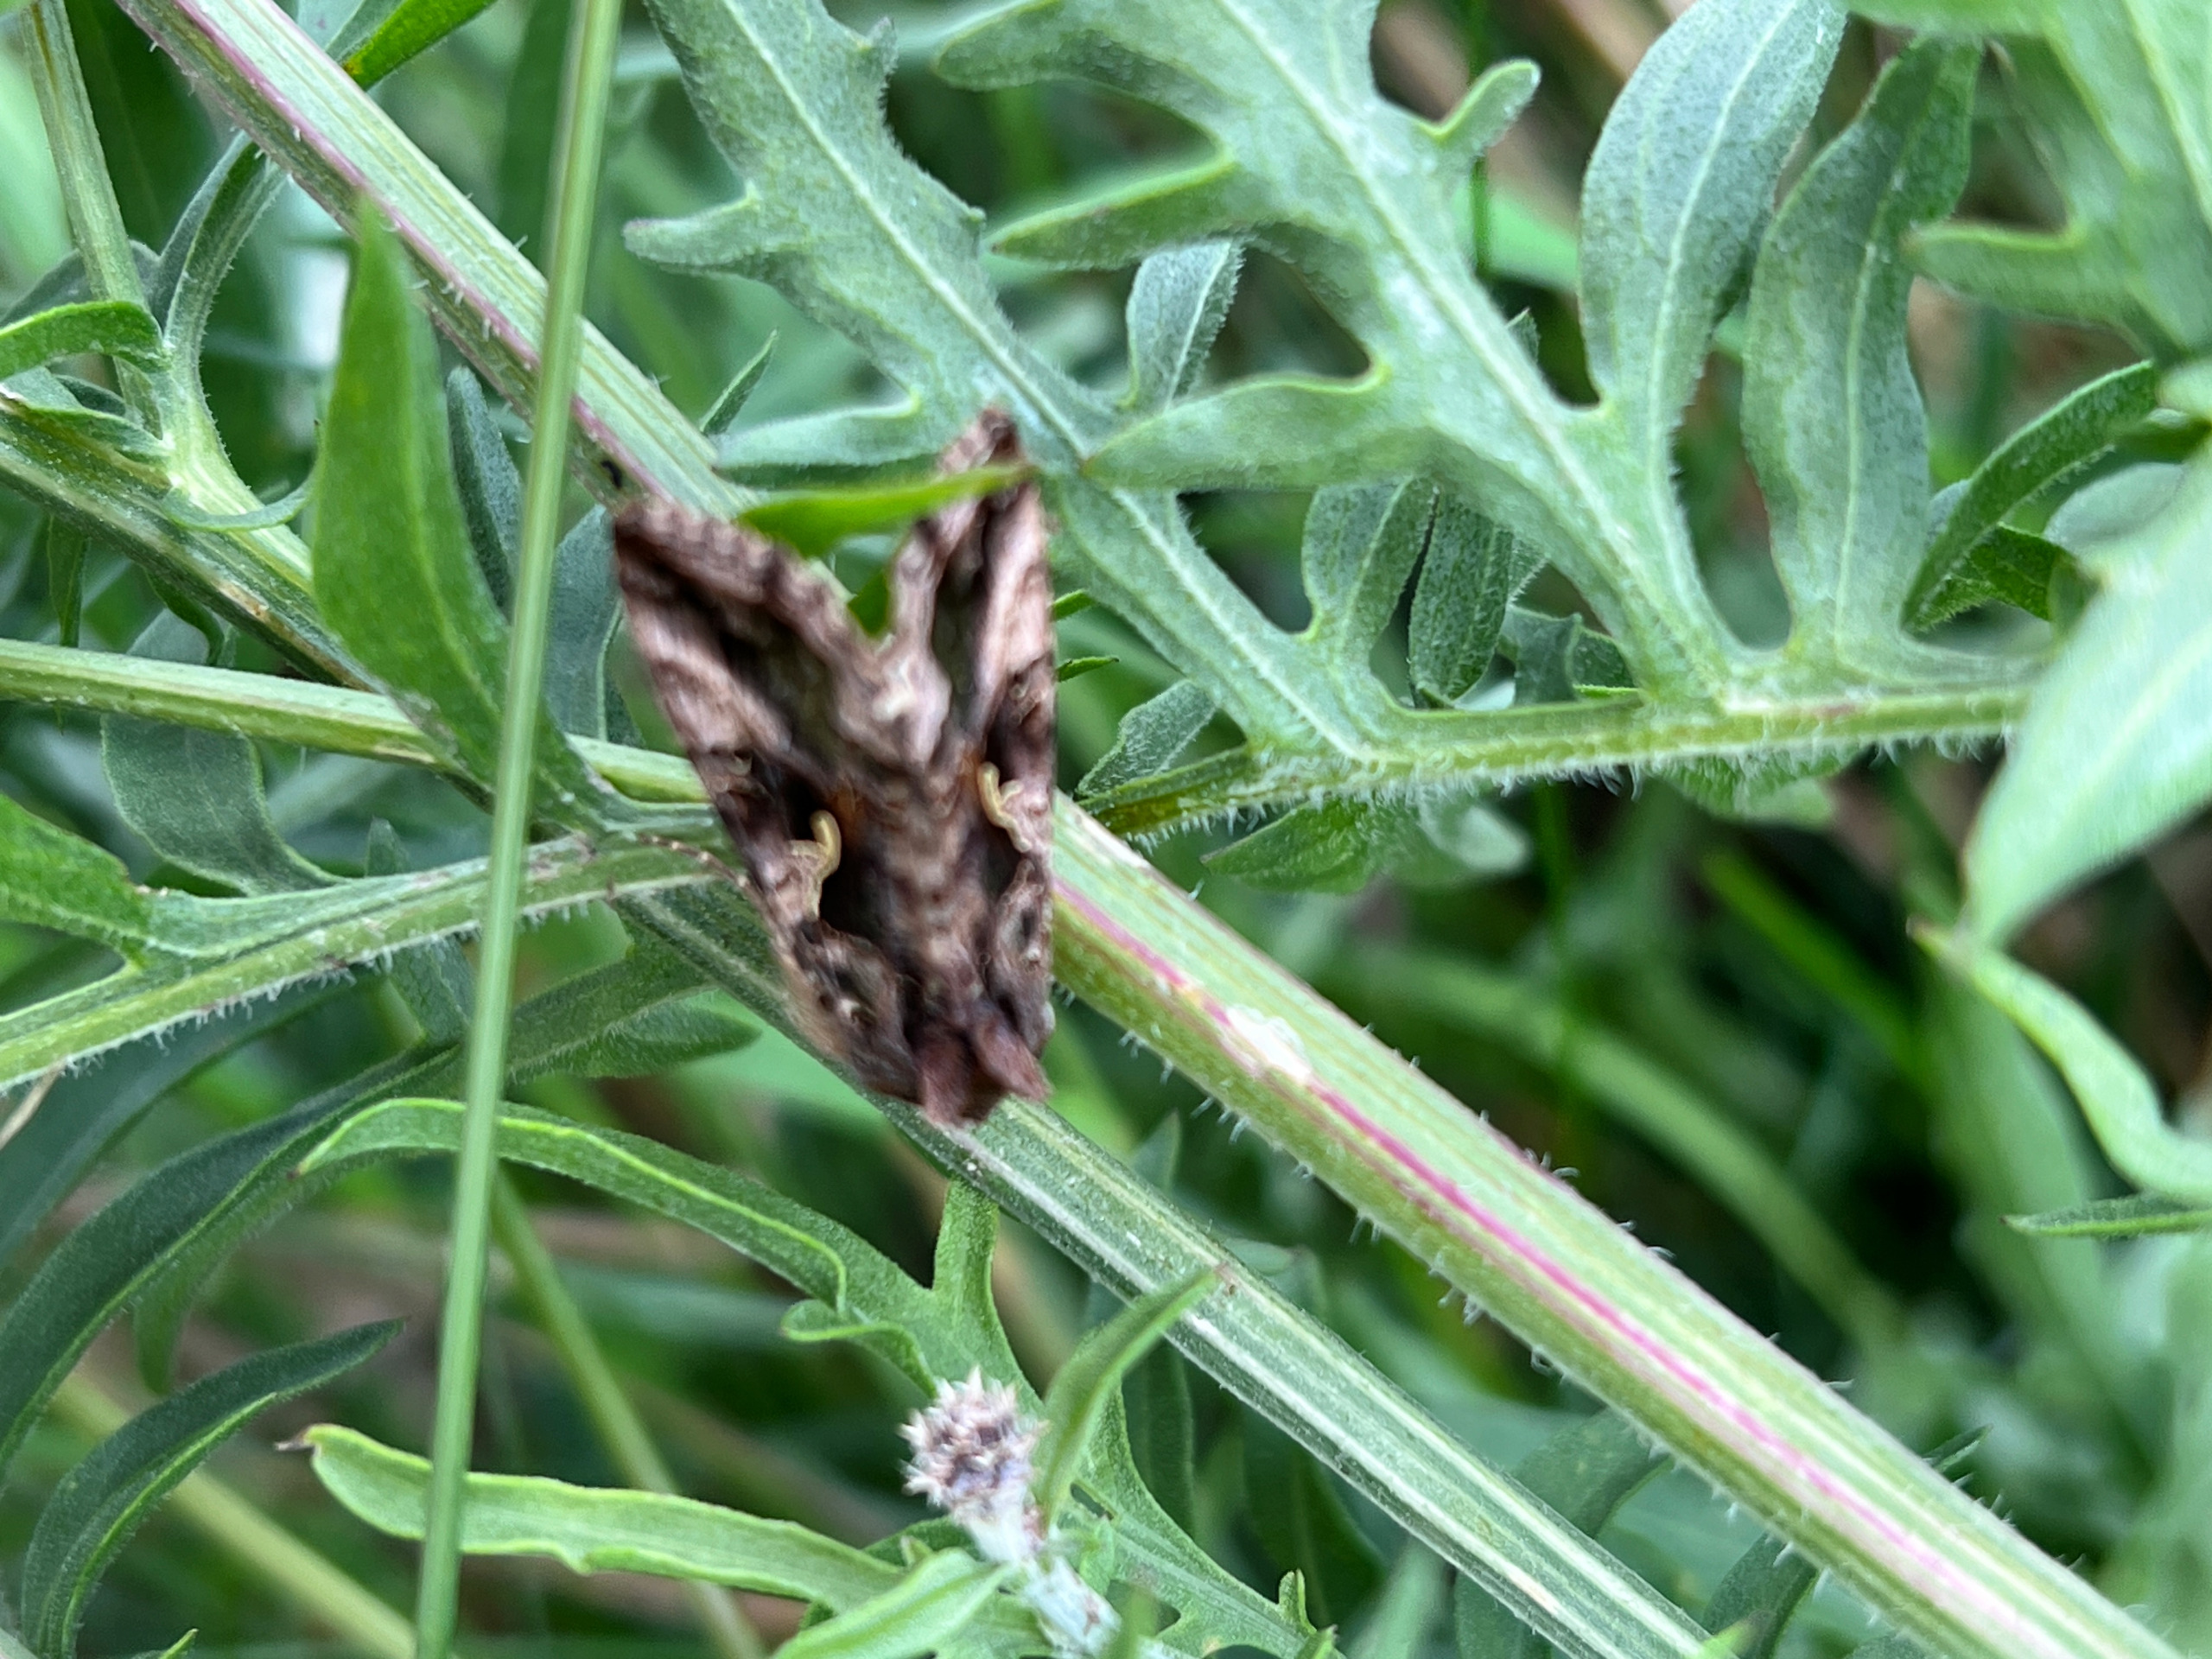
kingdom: Animalia
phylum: Arthropoda
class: Insecta
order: Lepidoptera
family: Noctuidae
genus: Autographa
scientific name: Autographa gamma
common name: Gammaugle
